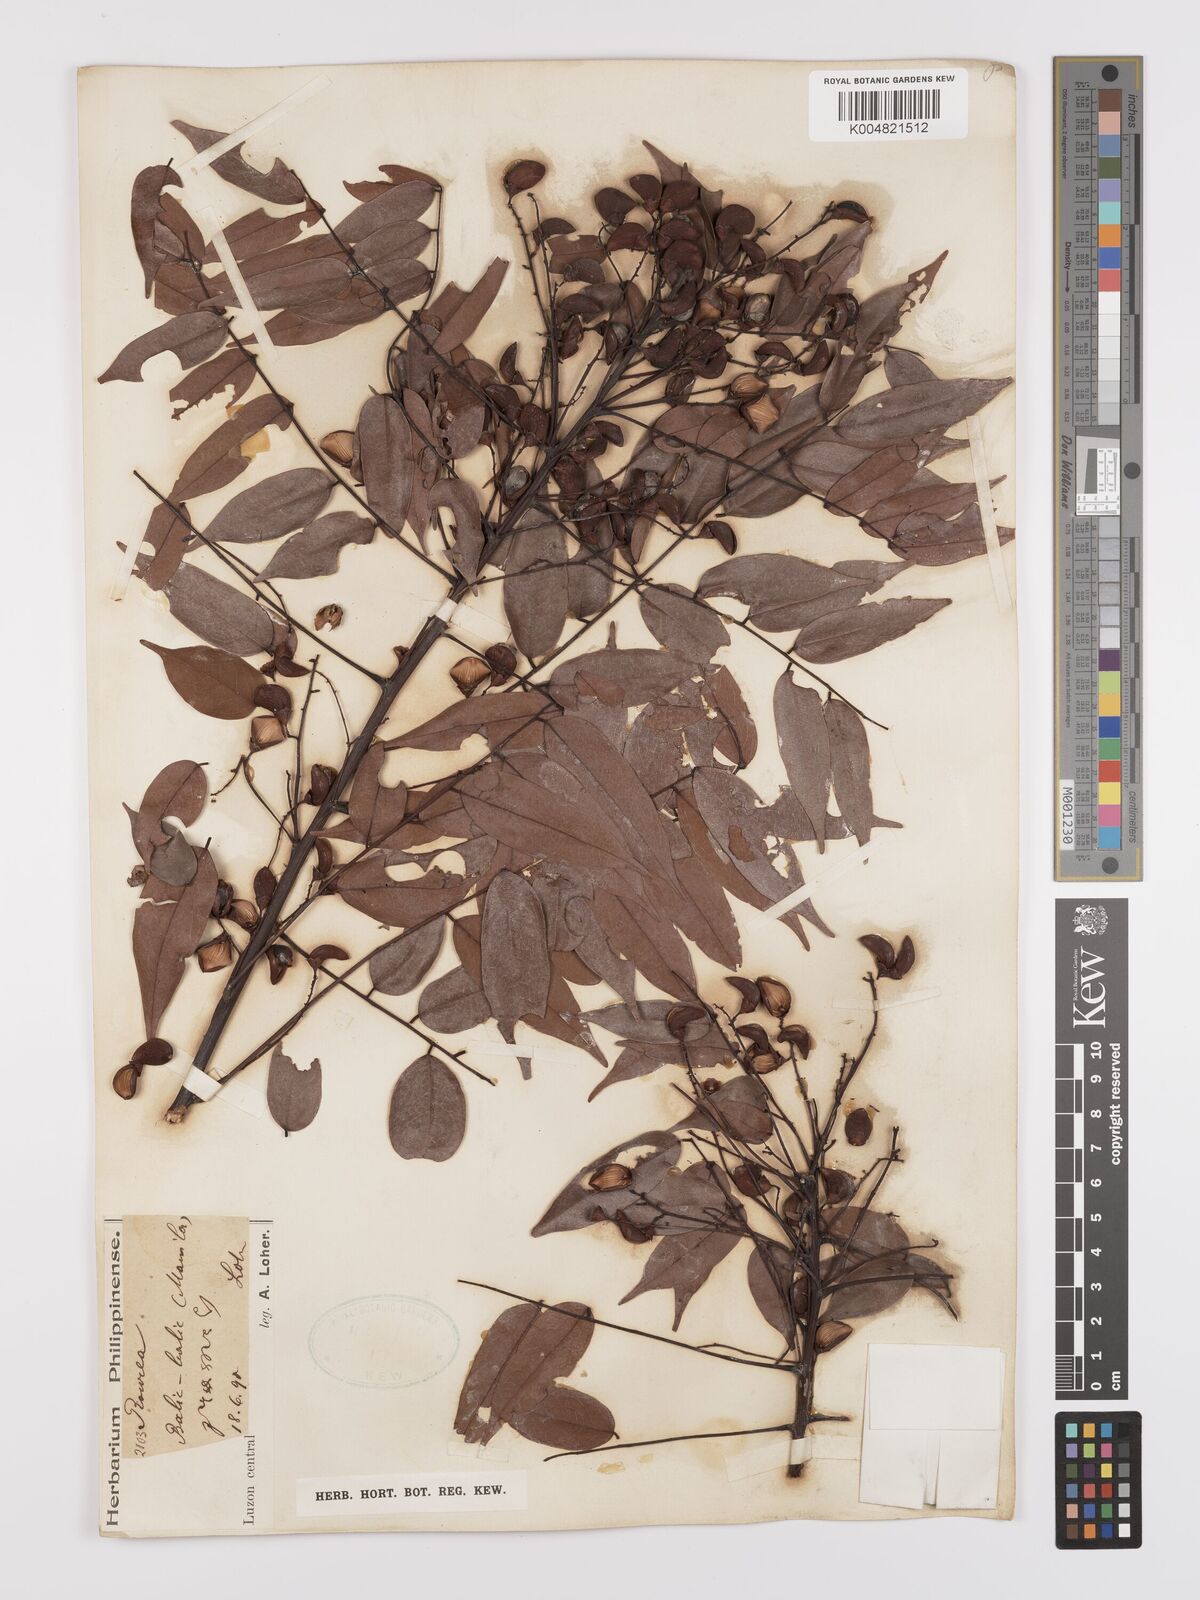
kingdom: Plantae
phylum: Tracheophyta
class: Magnoliopsida
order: Oxalidales
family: Connaraceae
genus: Rourea
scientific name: Rourea minor
